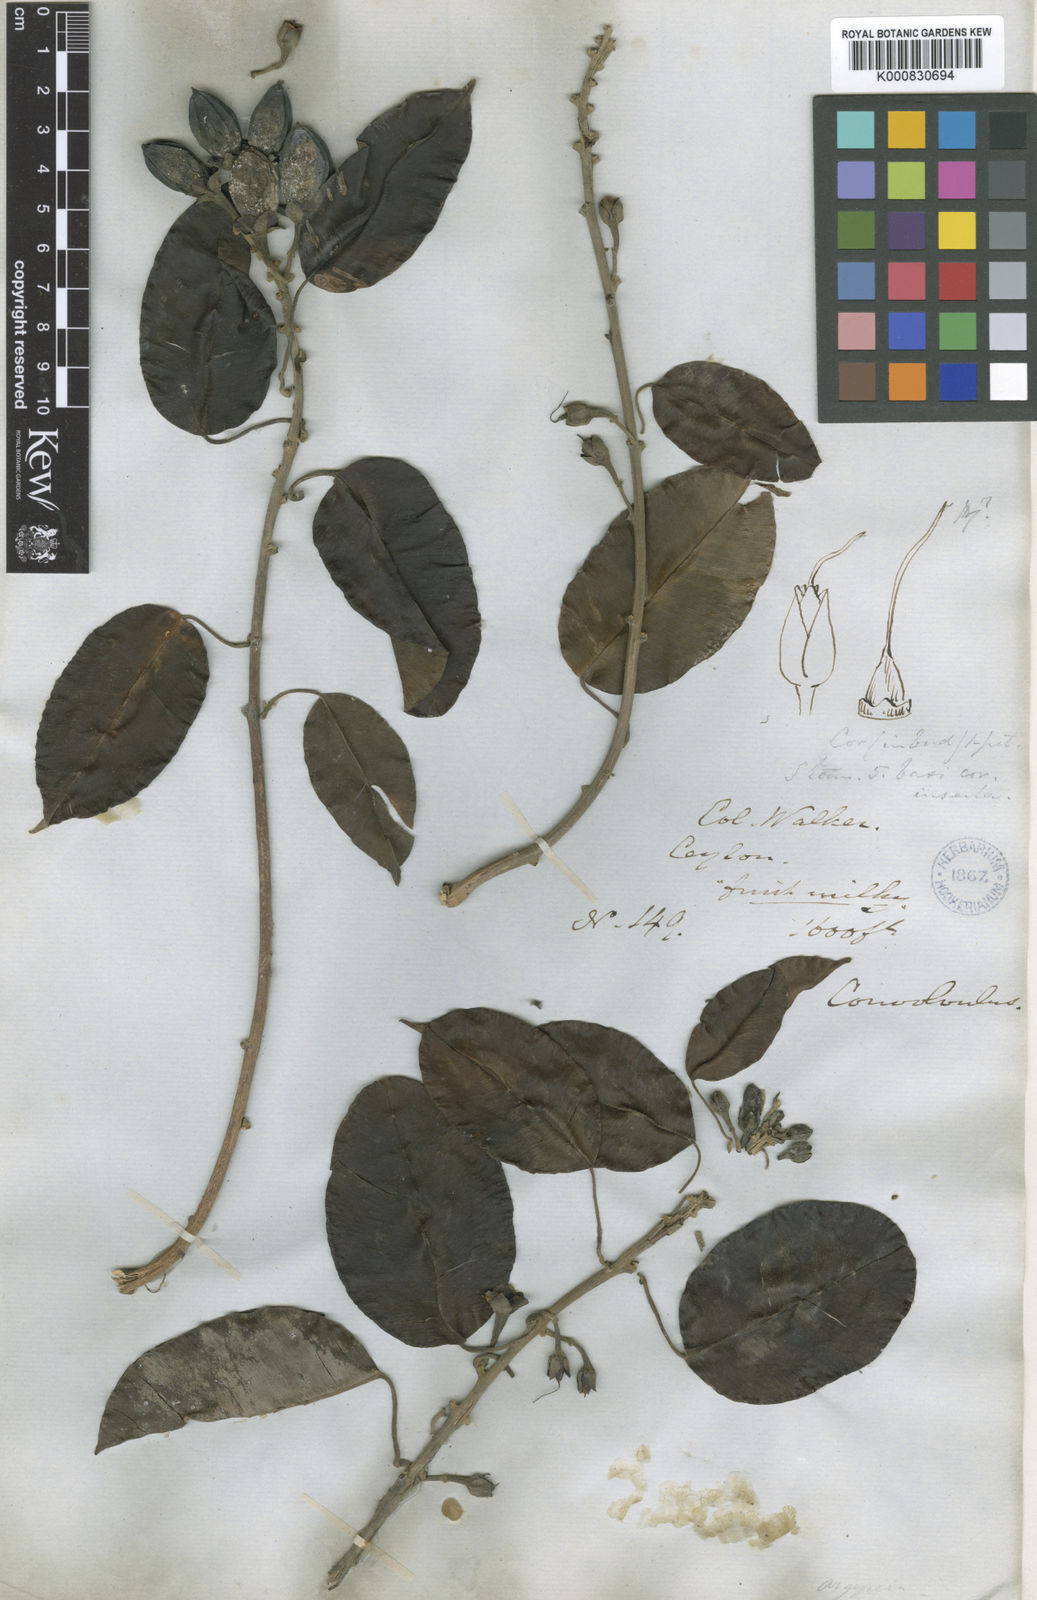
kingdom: Plantae
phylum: Tracheophyta
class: Magnoliopsida
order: Solanales
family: Convolvulaceae
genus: Argyreia
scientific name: Argyreia hancorniifolia
